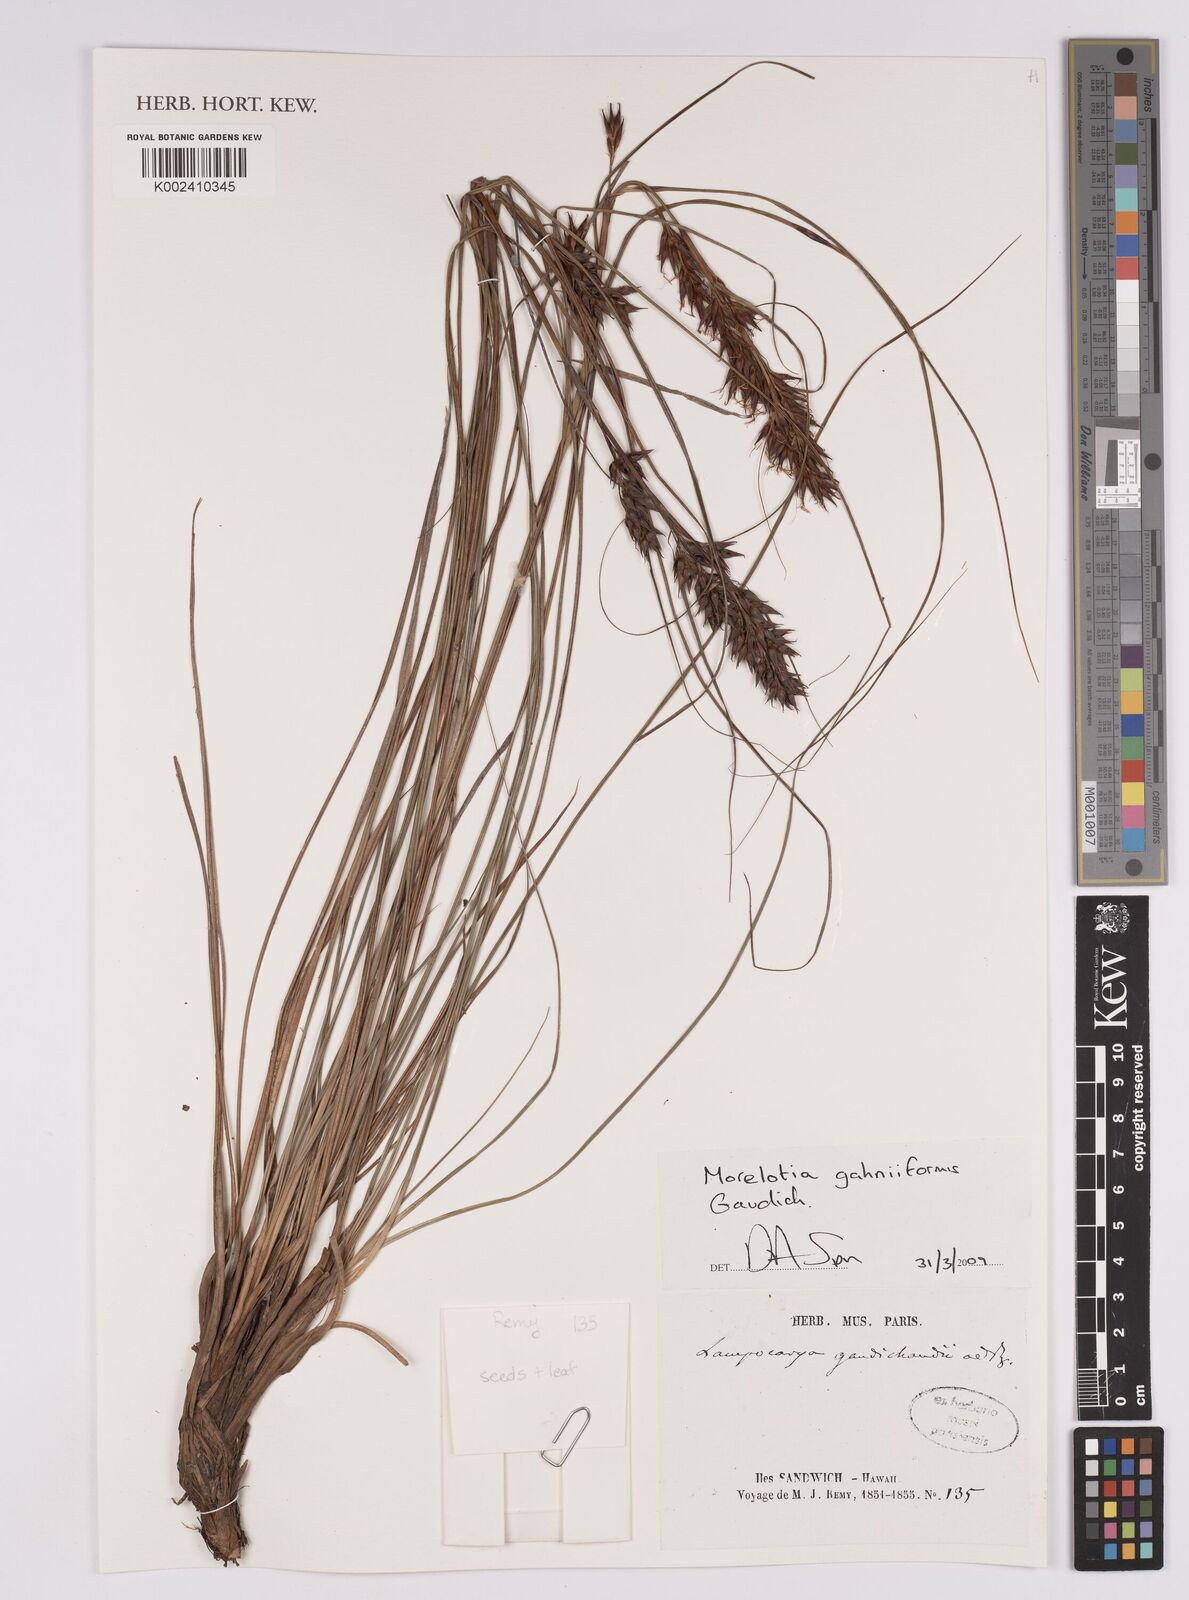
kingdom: Plantae
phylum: Tracheophyta
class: Liliopsida
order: Poales
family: Cyperaceae
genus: Morelotia
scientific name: Morelotia gahniiformis
